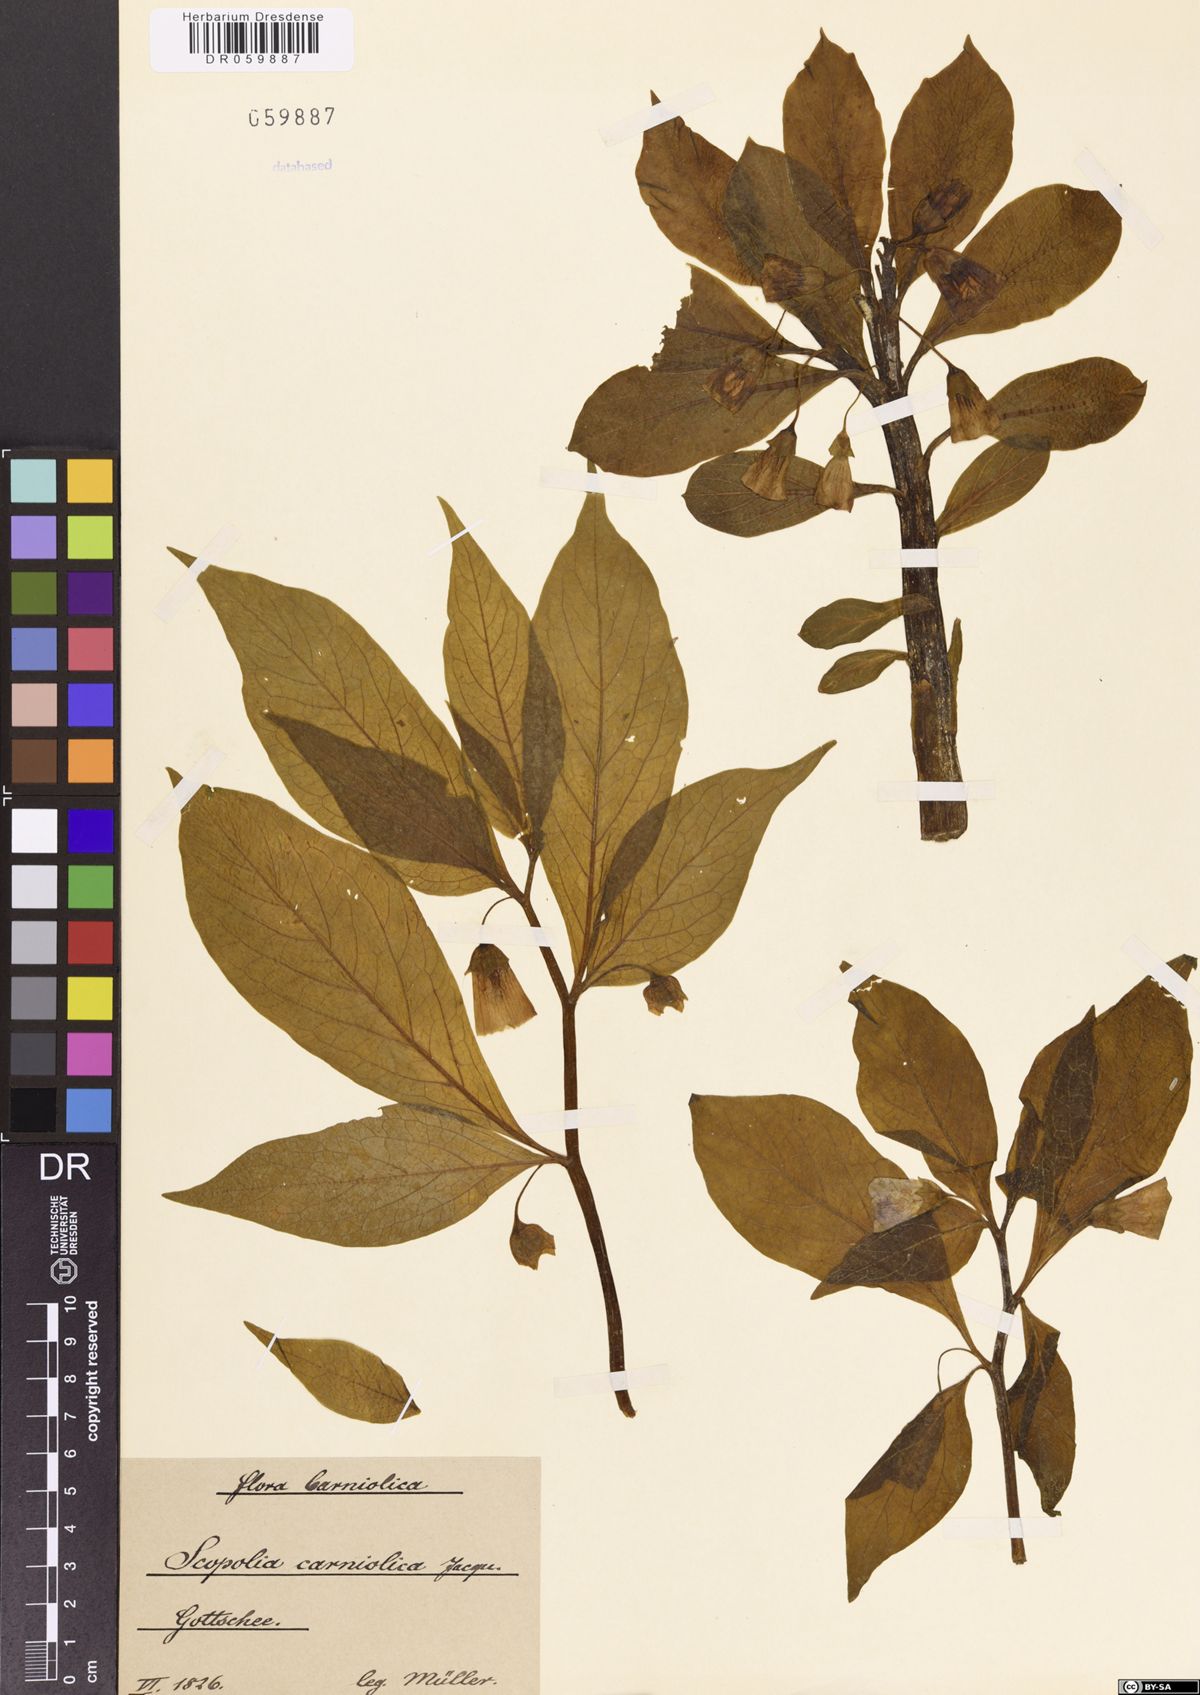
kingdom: Plantae
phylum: Tracheophyta
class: Magnoliopsida
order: Solanales
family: Solanaceae
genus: Scopolia
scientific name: Scopolia carniolica
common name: Scopolia
